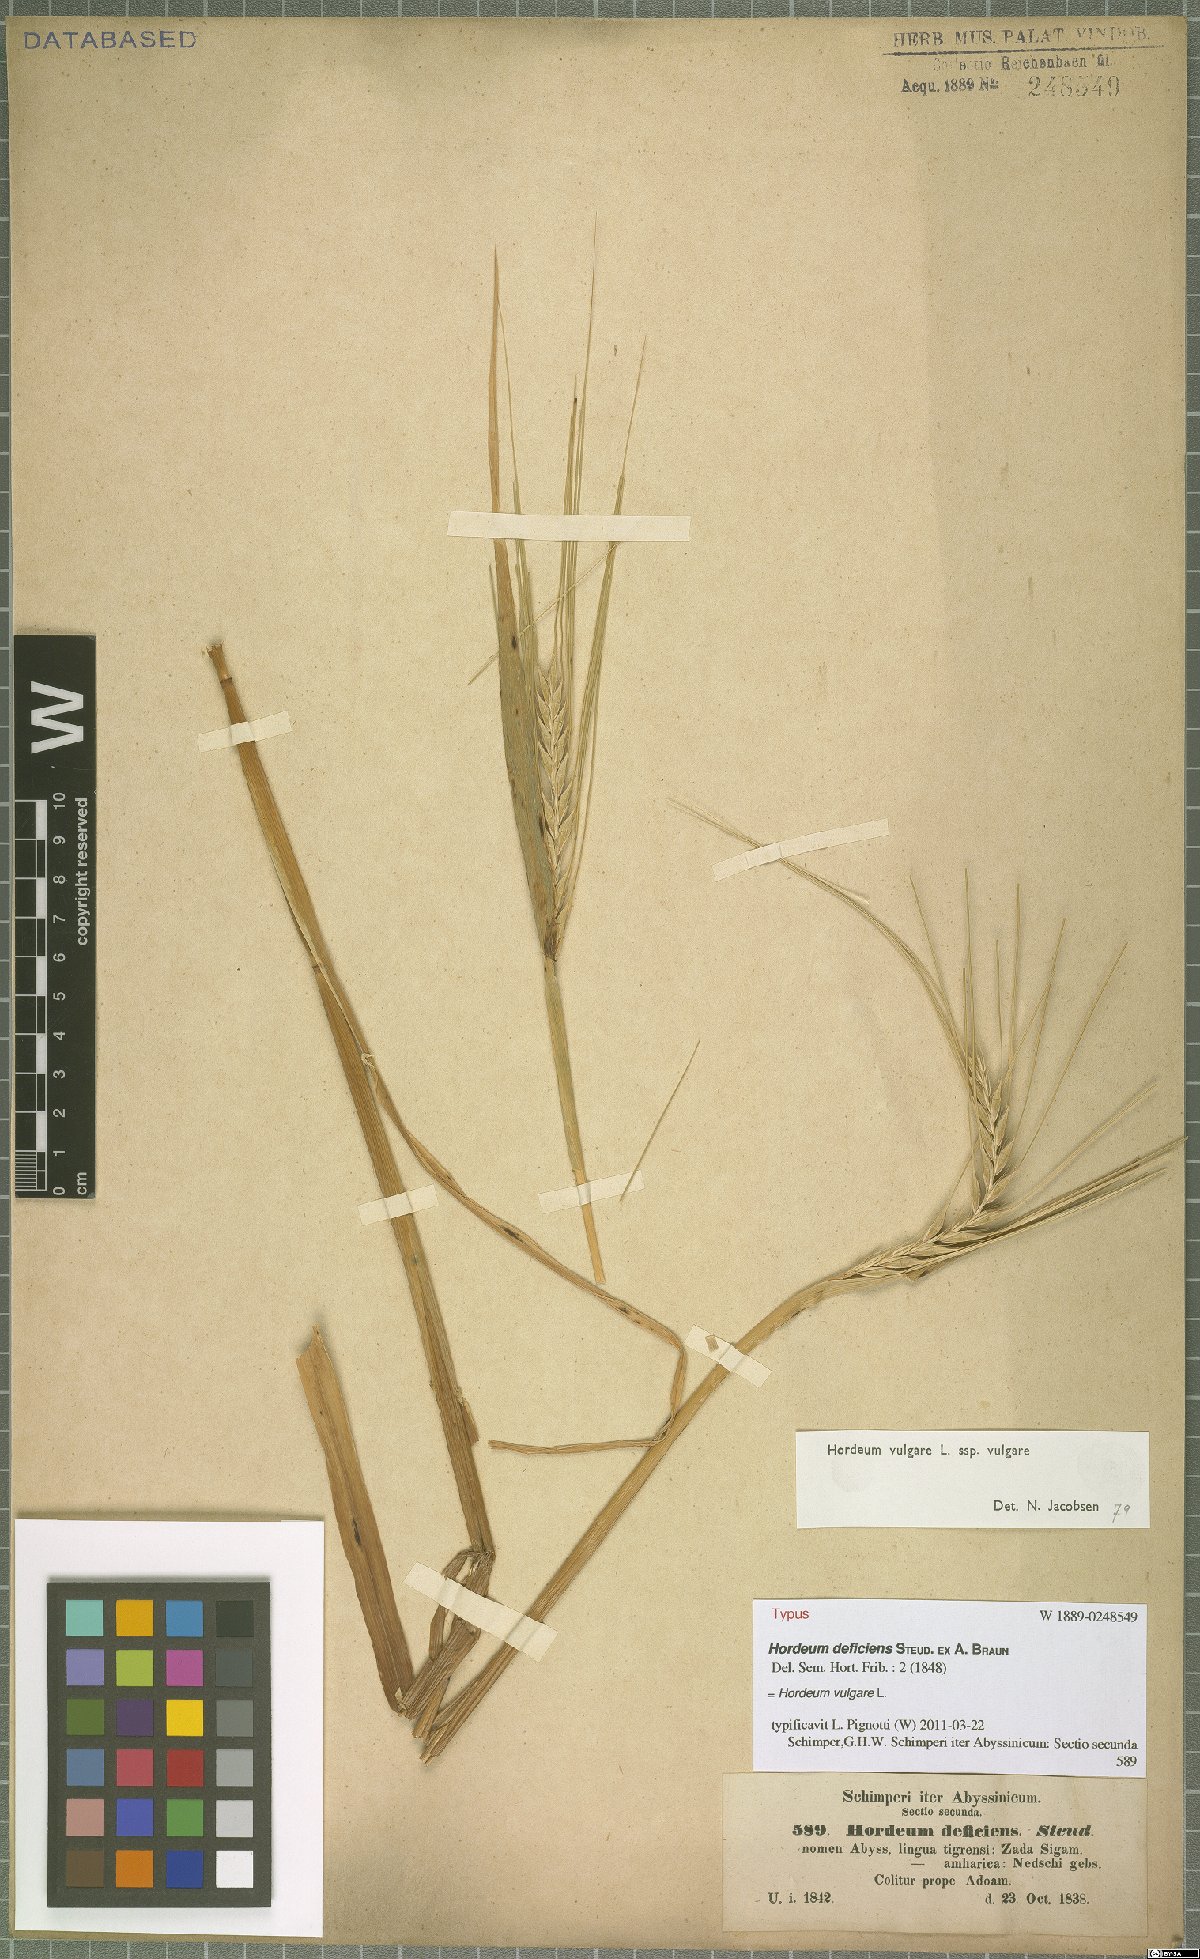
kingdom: Plantae
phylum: Tracheophyta
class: Liliopsida
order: Poales
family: Poaceae
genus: Hordeum
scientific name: Hordeum vulgare
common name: Common barley
